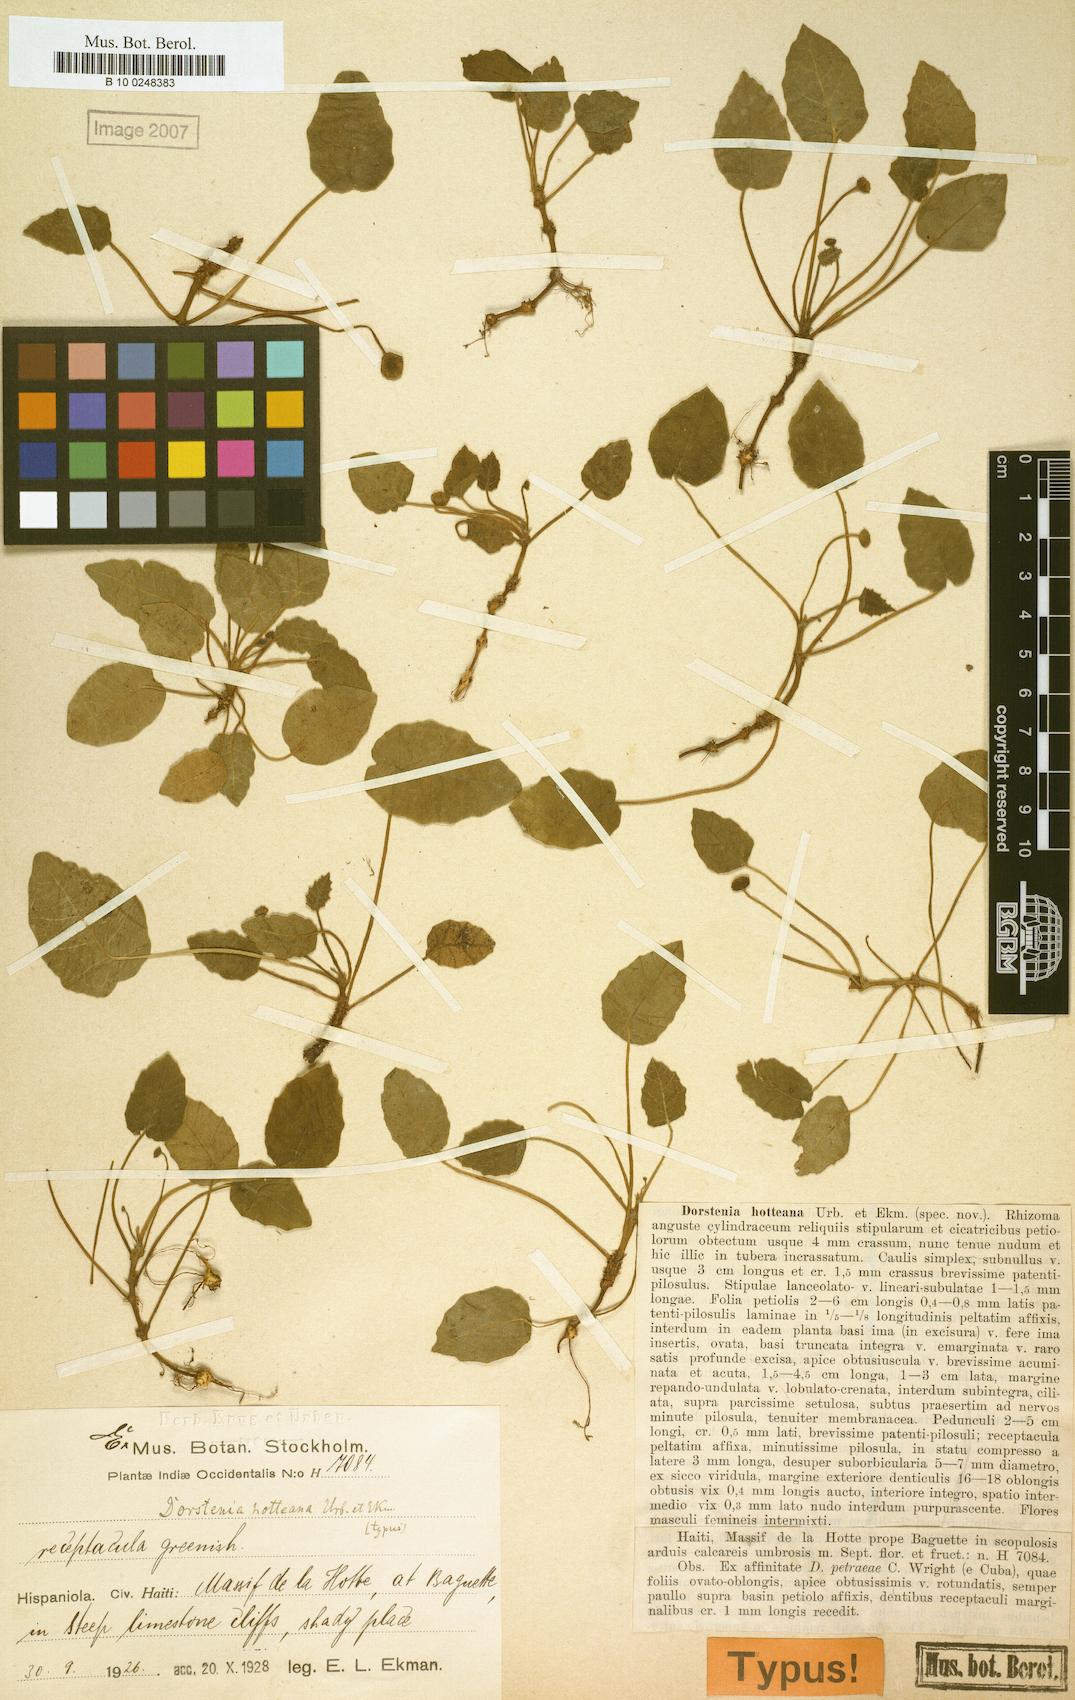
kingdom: Plantae
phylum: Tracheophyta
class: Magnoliopsida
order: Rosales
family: Moraceae
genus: Dorstenia
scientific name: Dorstenia flagellifera
